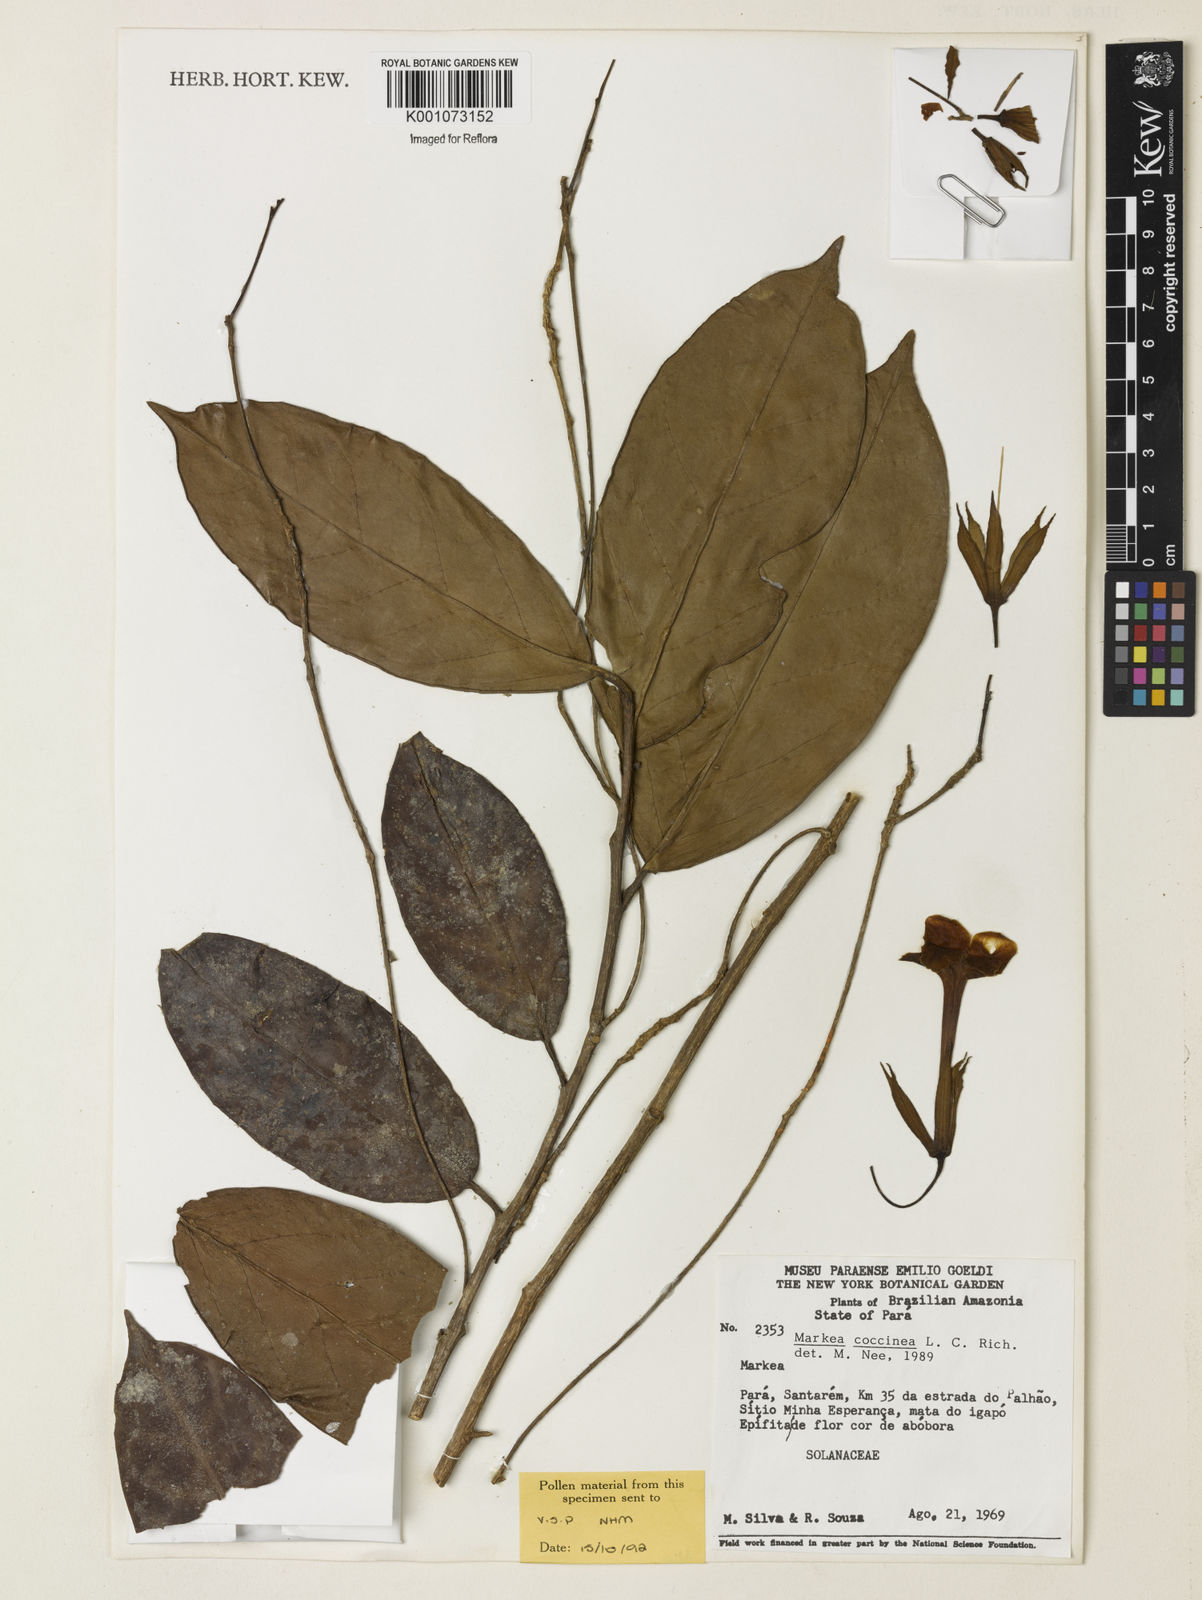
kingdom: Plantae
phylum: Tracheophyta
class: Magnoliopsida
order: Solanales
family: Solanaceae
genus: Markea
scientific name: Markea coccinea
